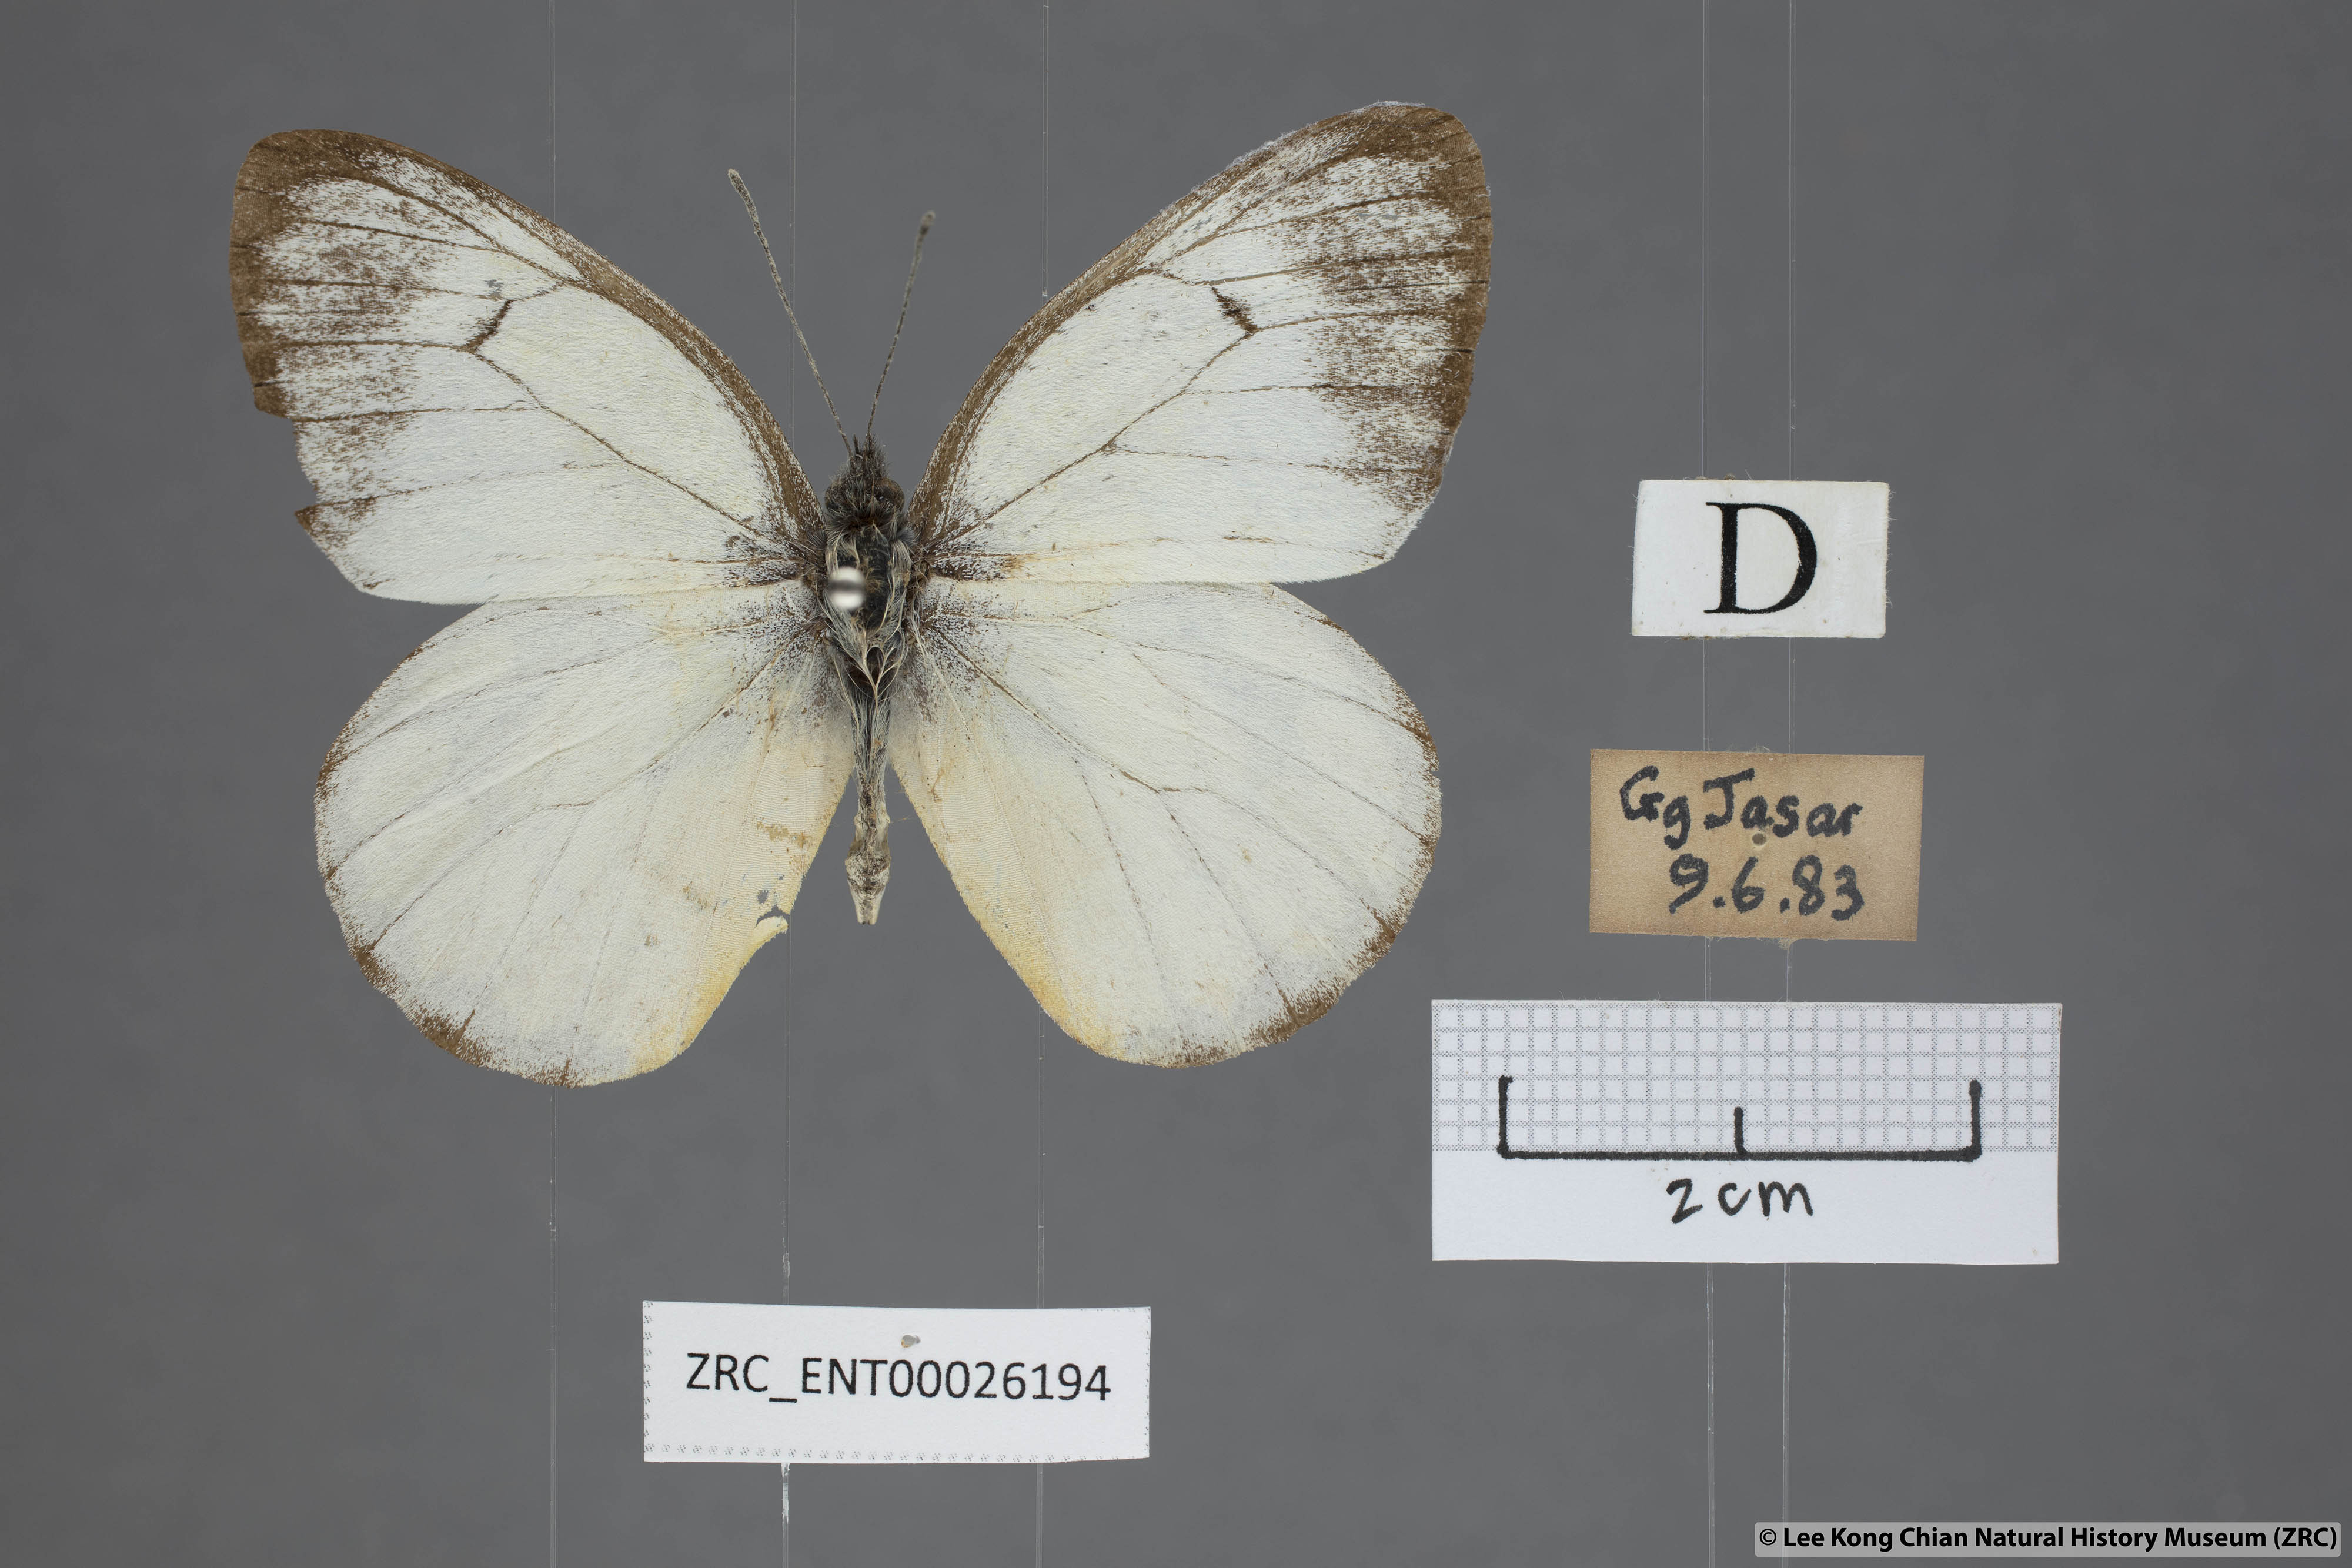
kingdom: Animalia
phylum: Arthropoda
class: Insecta
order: Lepidoptera
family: Pieridae
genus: Delias
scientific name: Delias georgina
